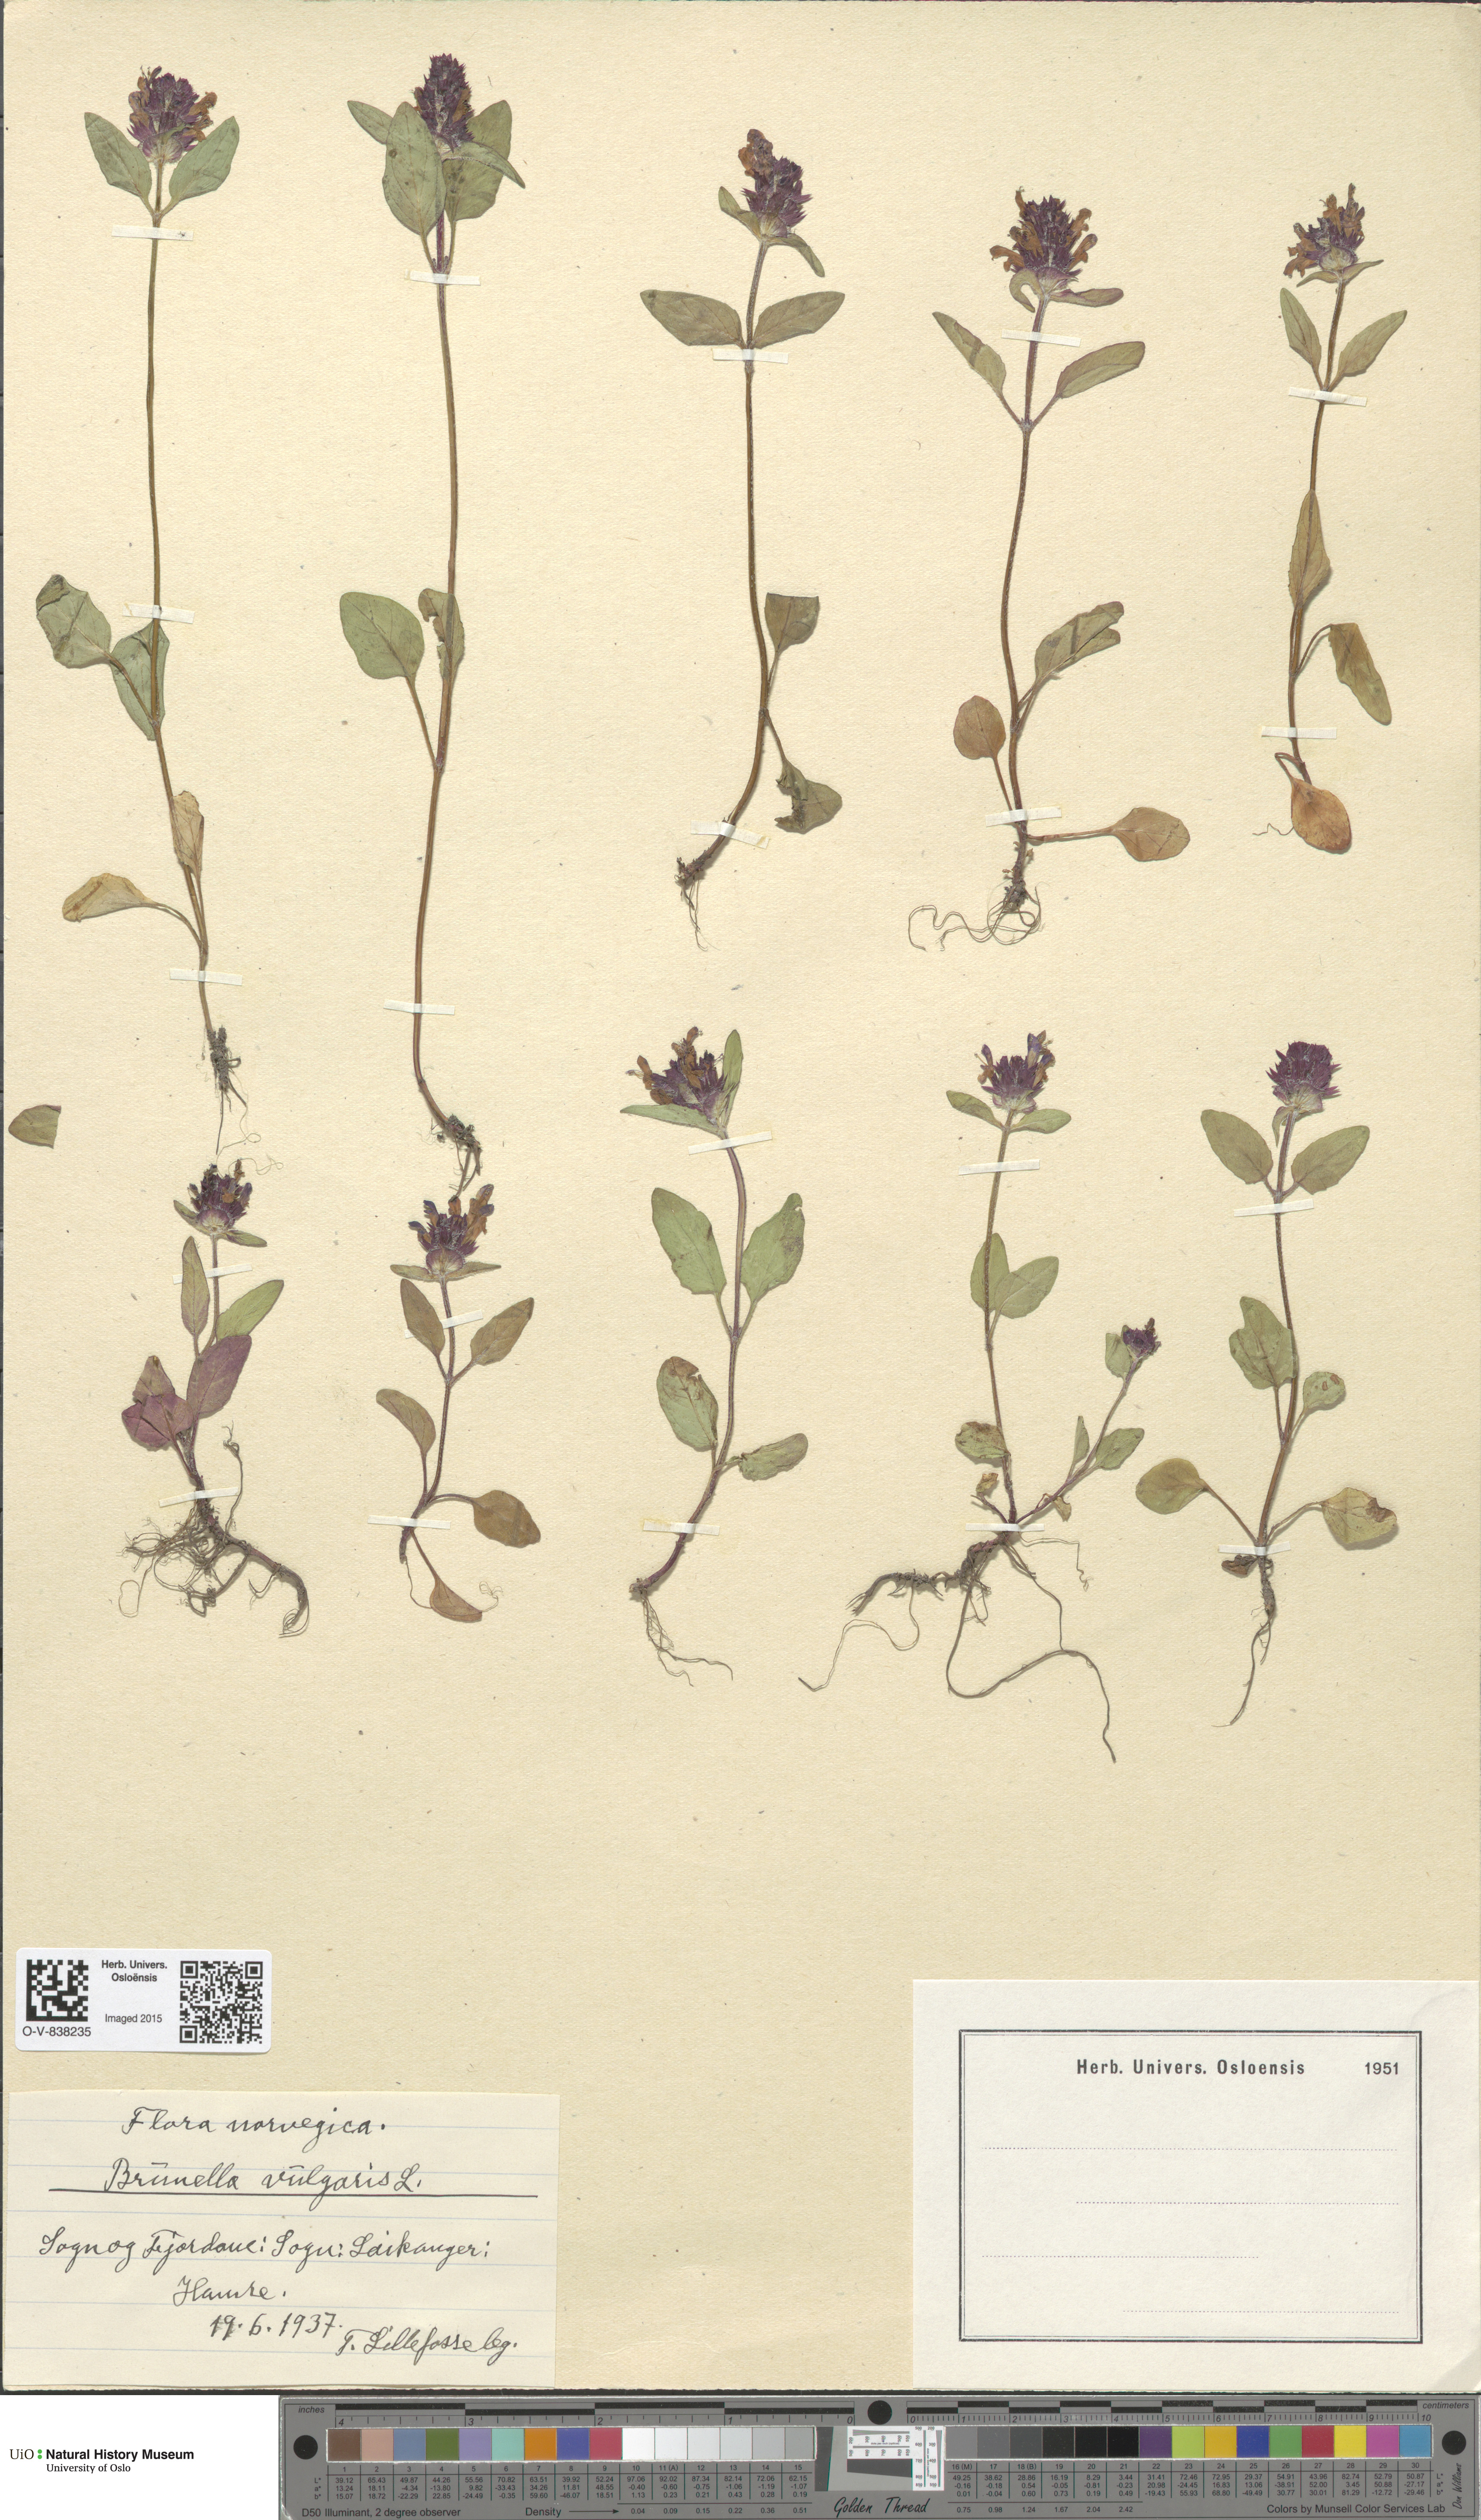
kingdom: Plantae
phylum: Tracheophyta
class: Magnoliopsida
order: Lamiales
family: Lamiaceae
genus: Prunella
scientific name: Prunella vulgaris
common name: Heal-all
